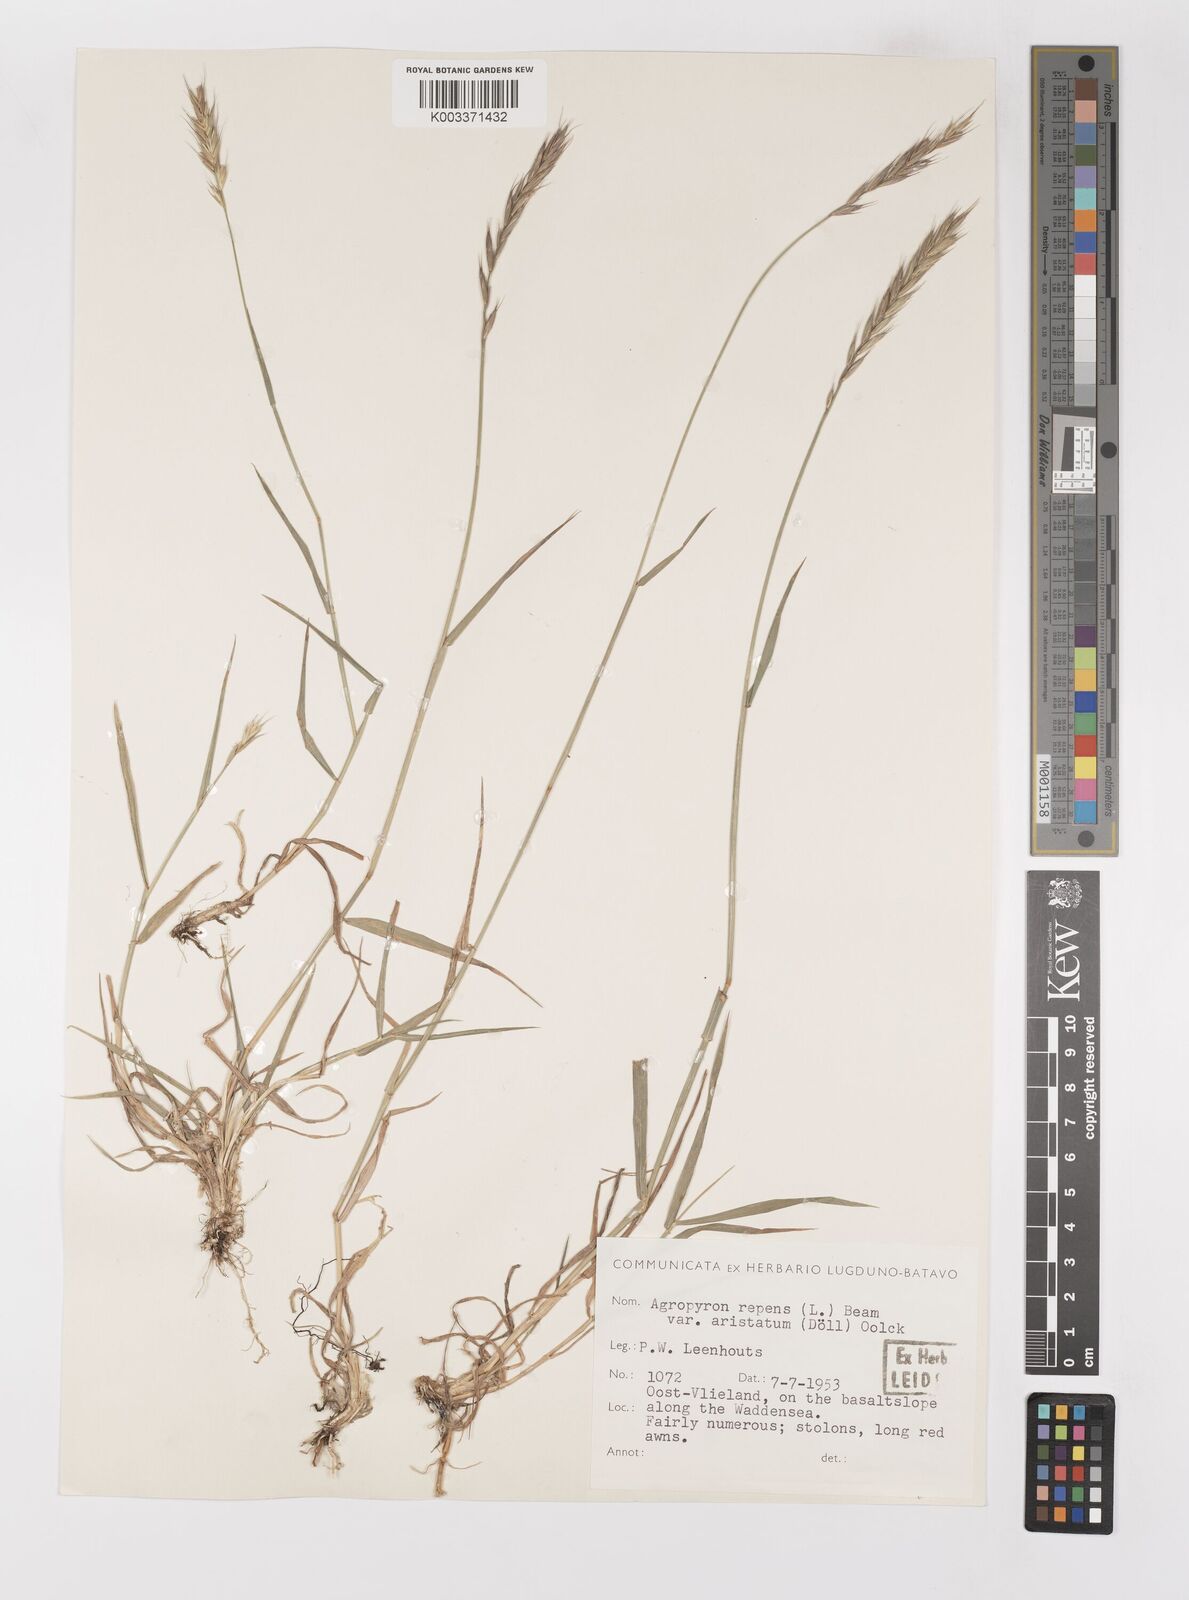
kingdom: Plantae
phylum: Tracheophyta
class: Liliopsida
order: Poales
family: Poaceae
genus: Elymus
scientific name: Elymus repens
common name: Quackgrass
